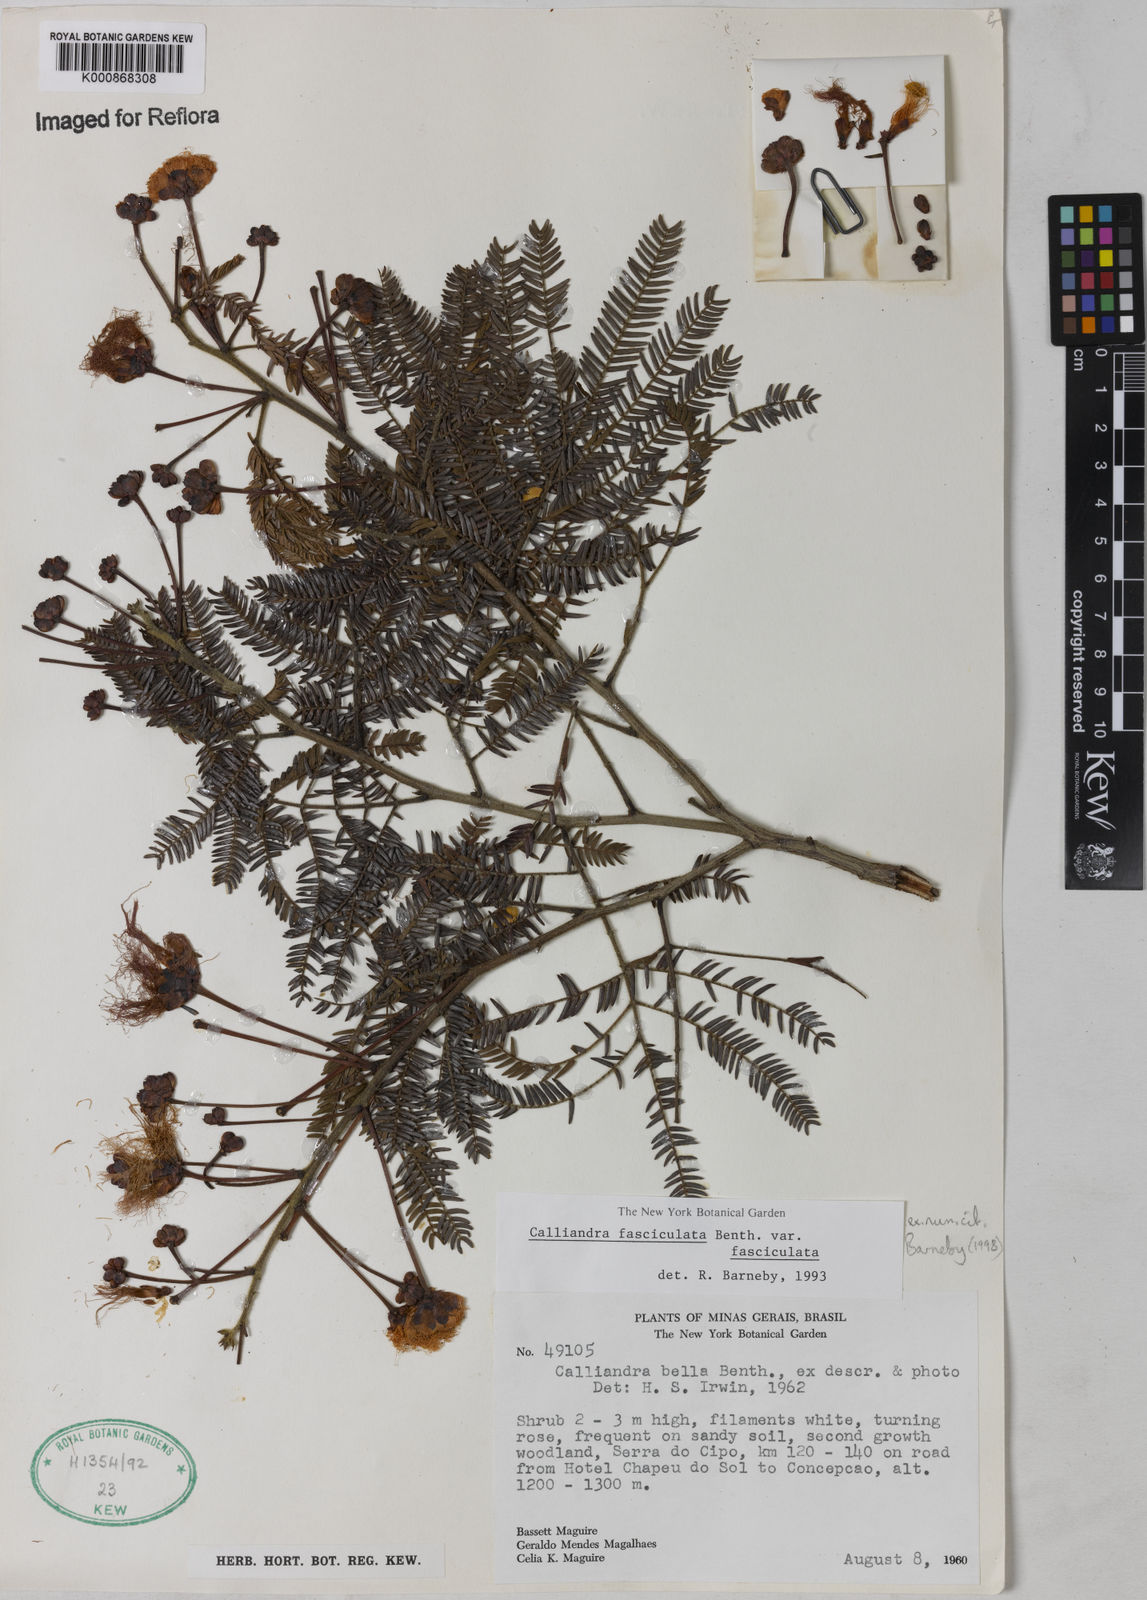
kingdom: Plantae
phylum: Tracheophyta
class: Magnoliopsida
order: Fabales
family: Fabaceae
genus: Calliandra
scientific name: Calliandra fasciculata
